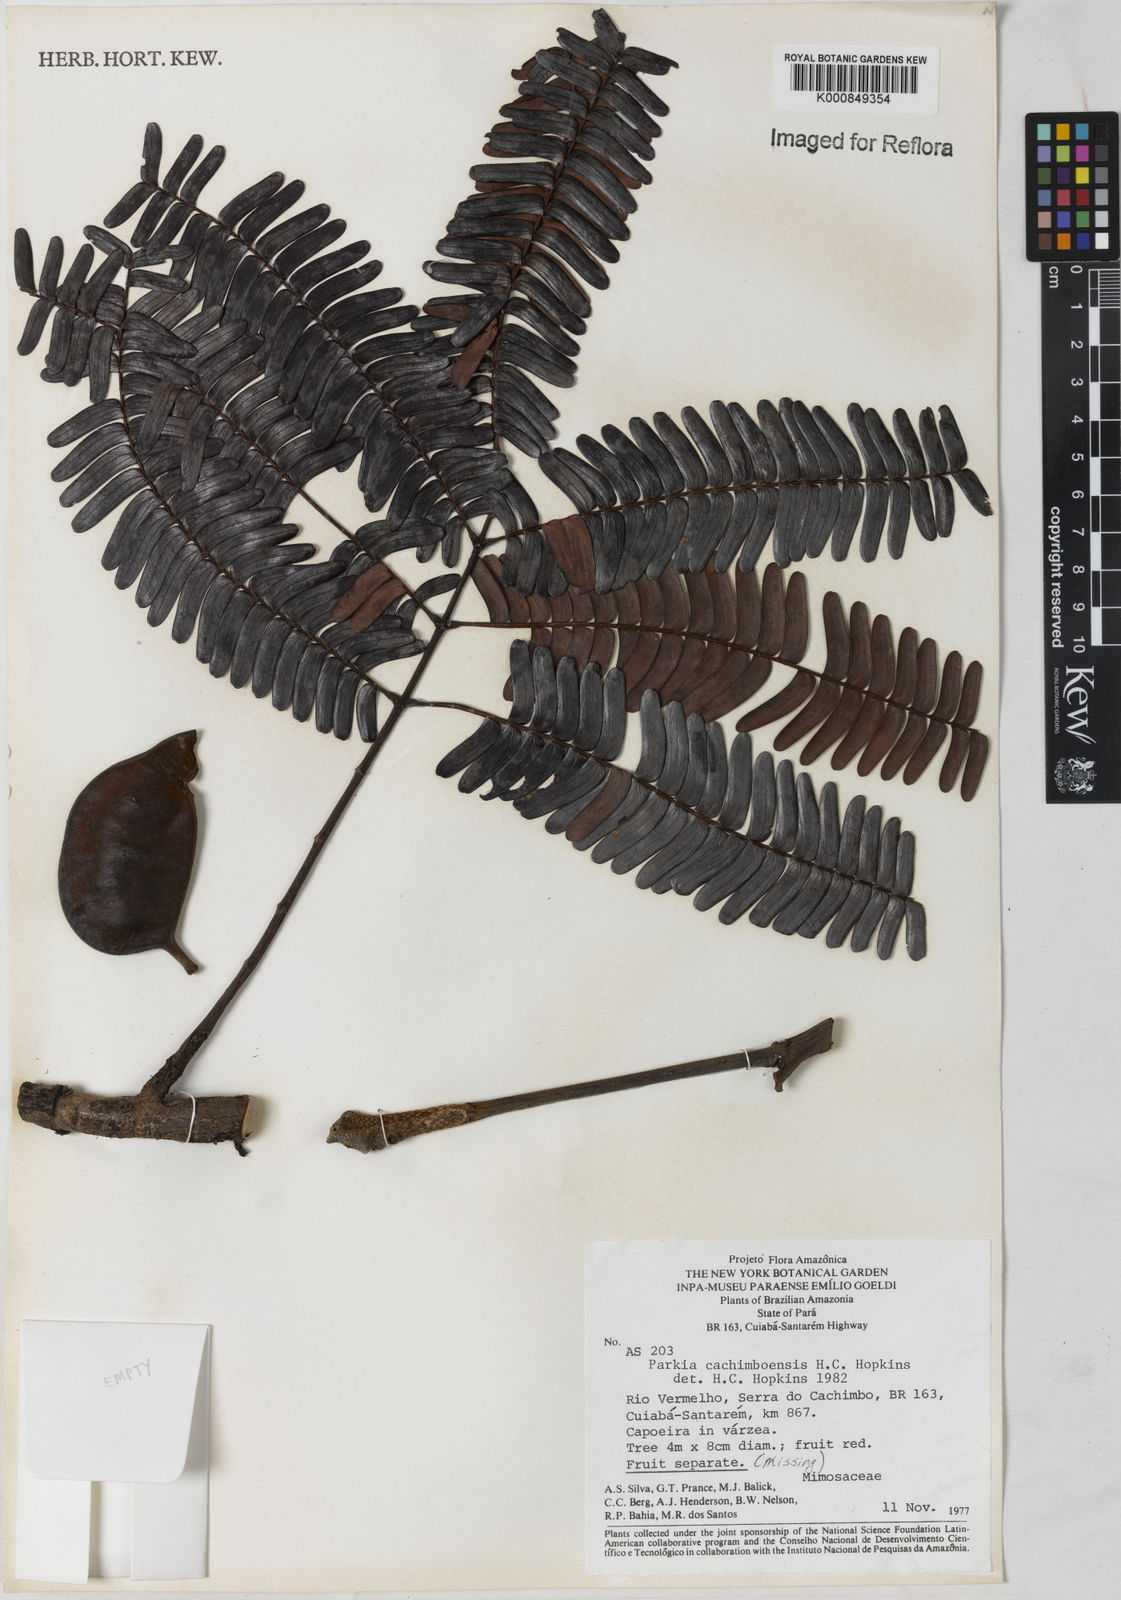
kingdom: Plantae
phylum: Tracheophyta
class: Magnoliopsida
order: Fabales
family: Fabaceae
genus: Parkia
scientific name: Parkia cachimboensis
